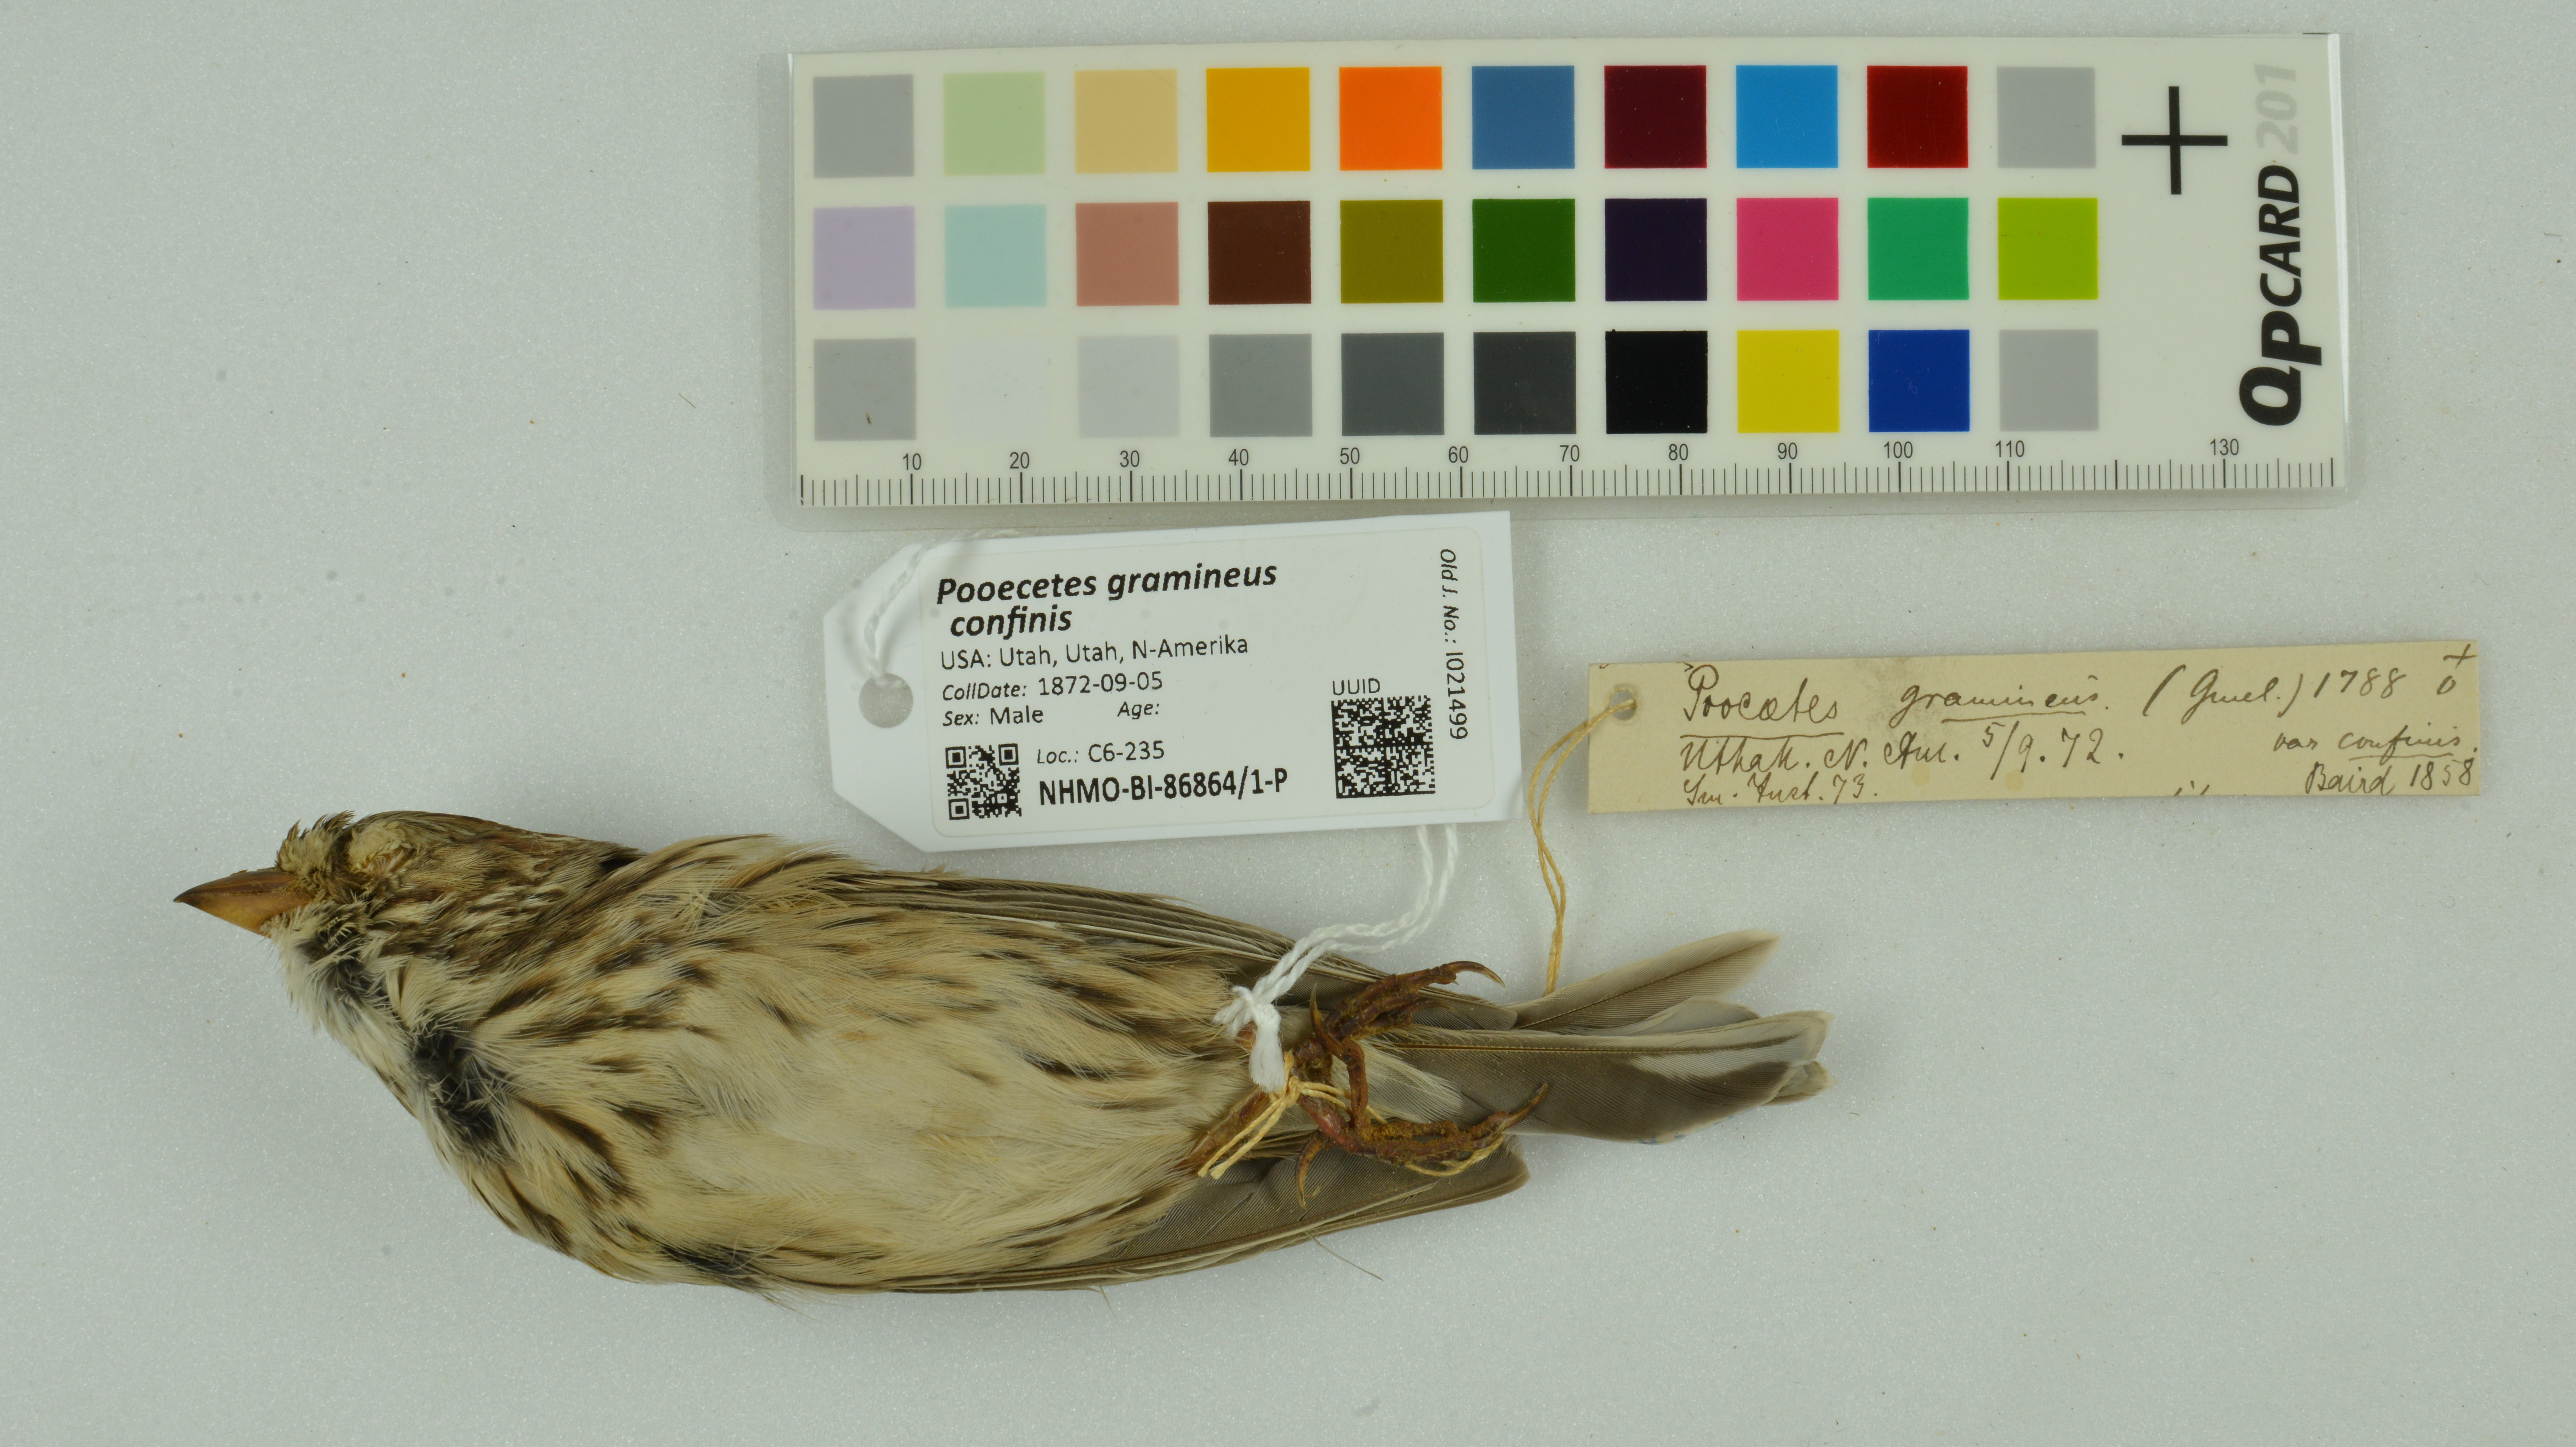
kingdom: Animalia
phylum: Chordata
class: Aves
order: Passeriformes
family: Passerellidae
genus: Pooecetes
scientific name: Pooecetes gramineus
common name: Vesper sparrow
